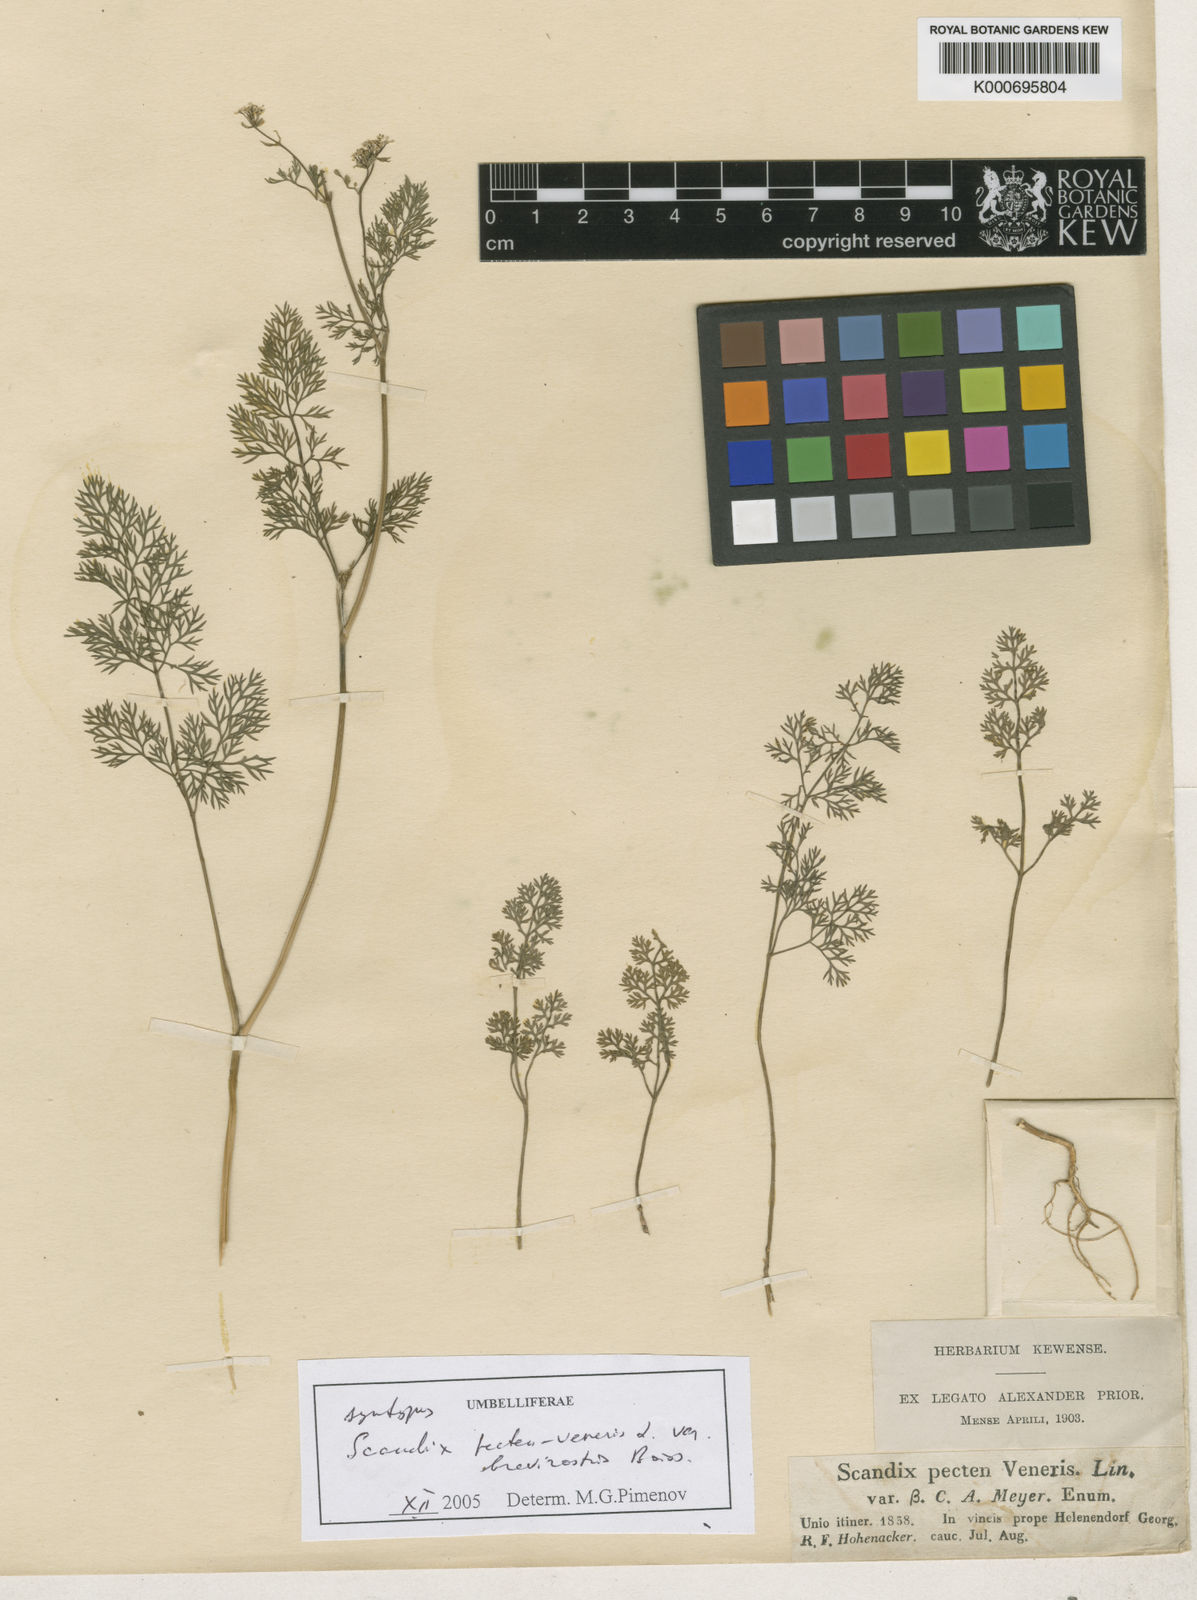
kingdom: Plantae
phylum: Tracheophyta
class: Magnoliopsida
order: Apiales
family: Apiaceae
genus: Scandix
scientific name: Scandix pecten-veneris
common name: Shepherd's-needle
